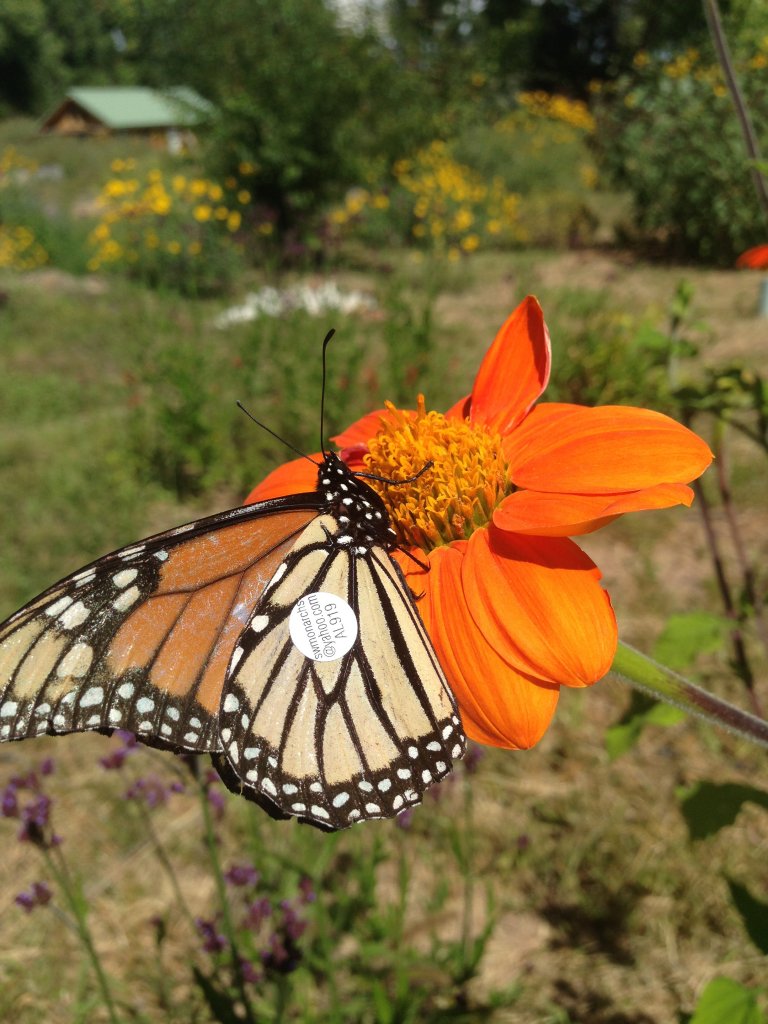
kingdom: Animalia
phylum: Arthropoda
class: Insecta
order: Lepidoptera
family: Nymphalidae
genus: Danaus
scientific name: Danaus plexippus
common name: Monarch
